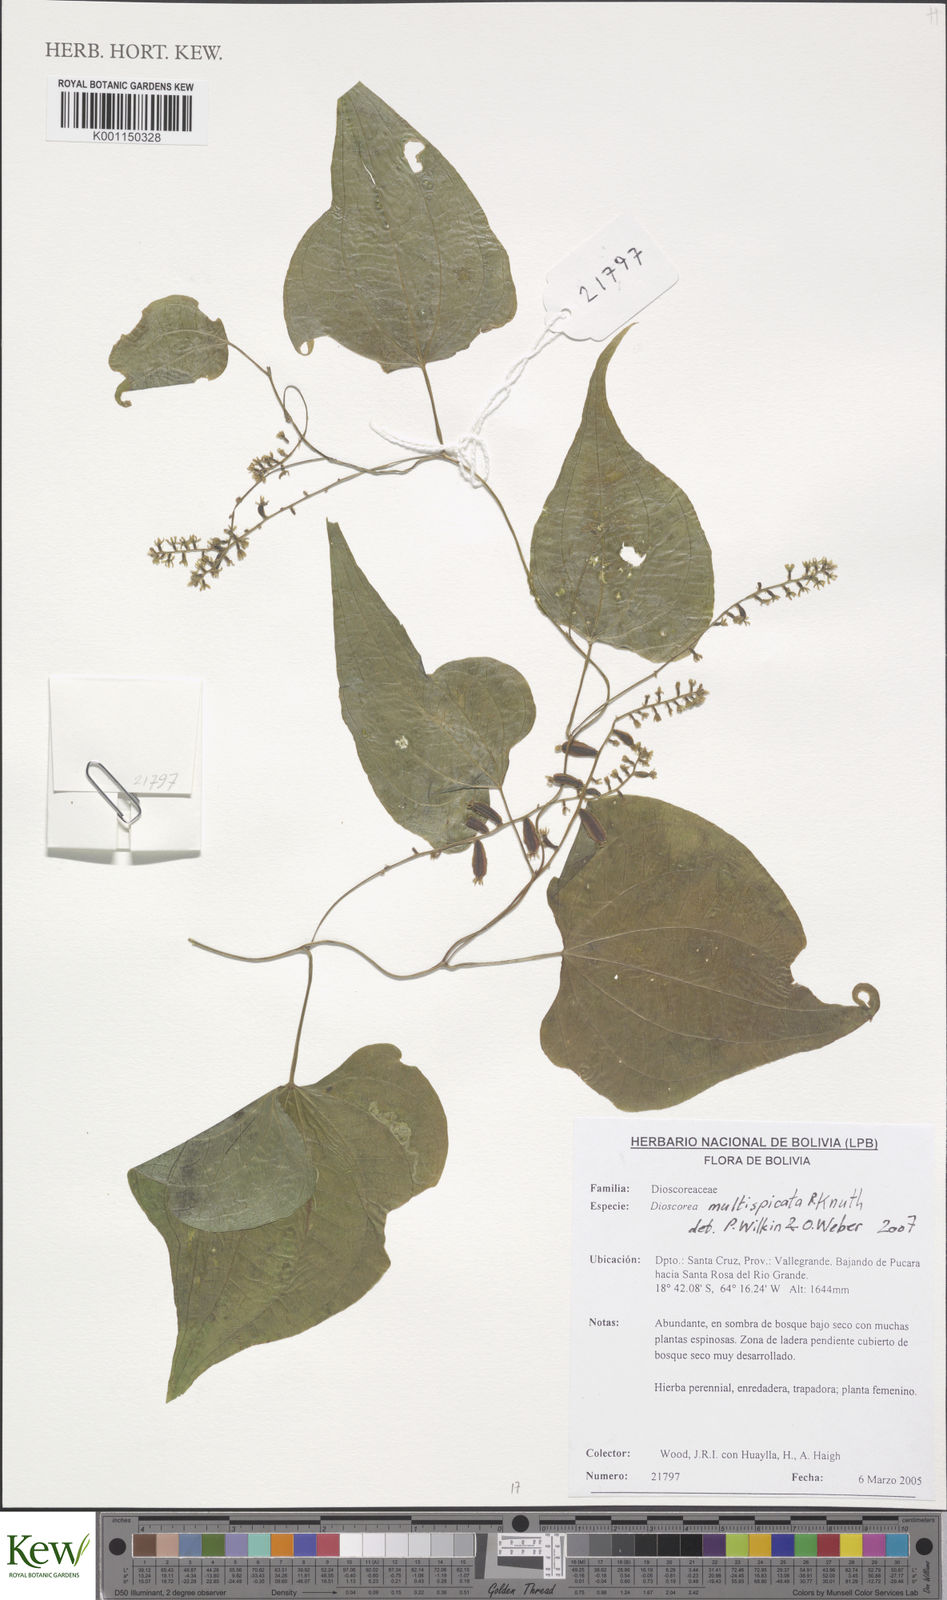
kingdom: Plantae
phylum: Tracheophyta
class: Liliopsida
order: Dioscoreales
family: Dioscoreaceae
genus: Dioscorea
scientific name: Dioscorea multispicata
